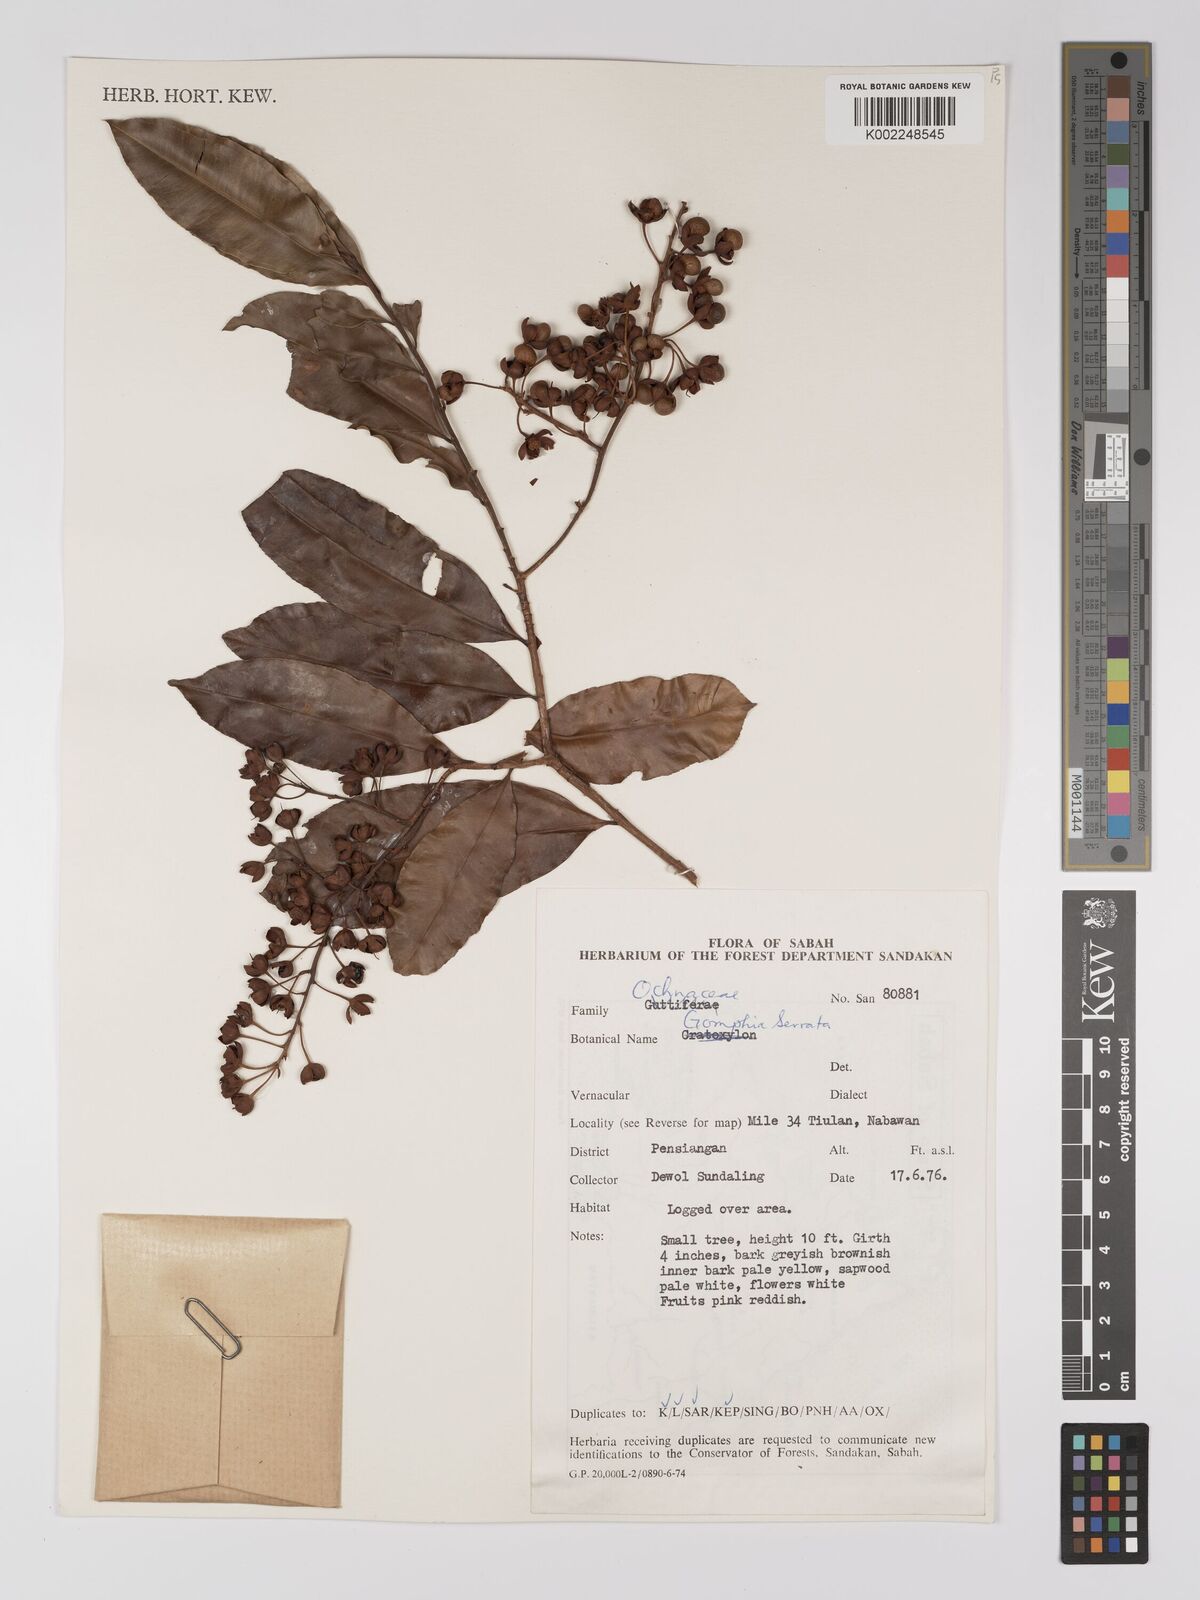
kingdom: Plantae
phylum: Tracheophyta
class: Magnoliopsida
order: Malpighiales
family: Ochnaceae
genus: Gomphia
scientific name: Gomphia serrata
